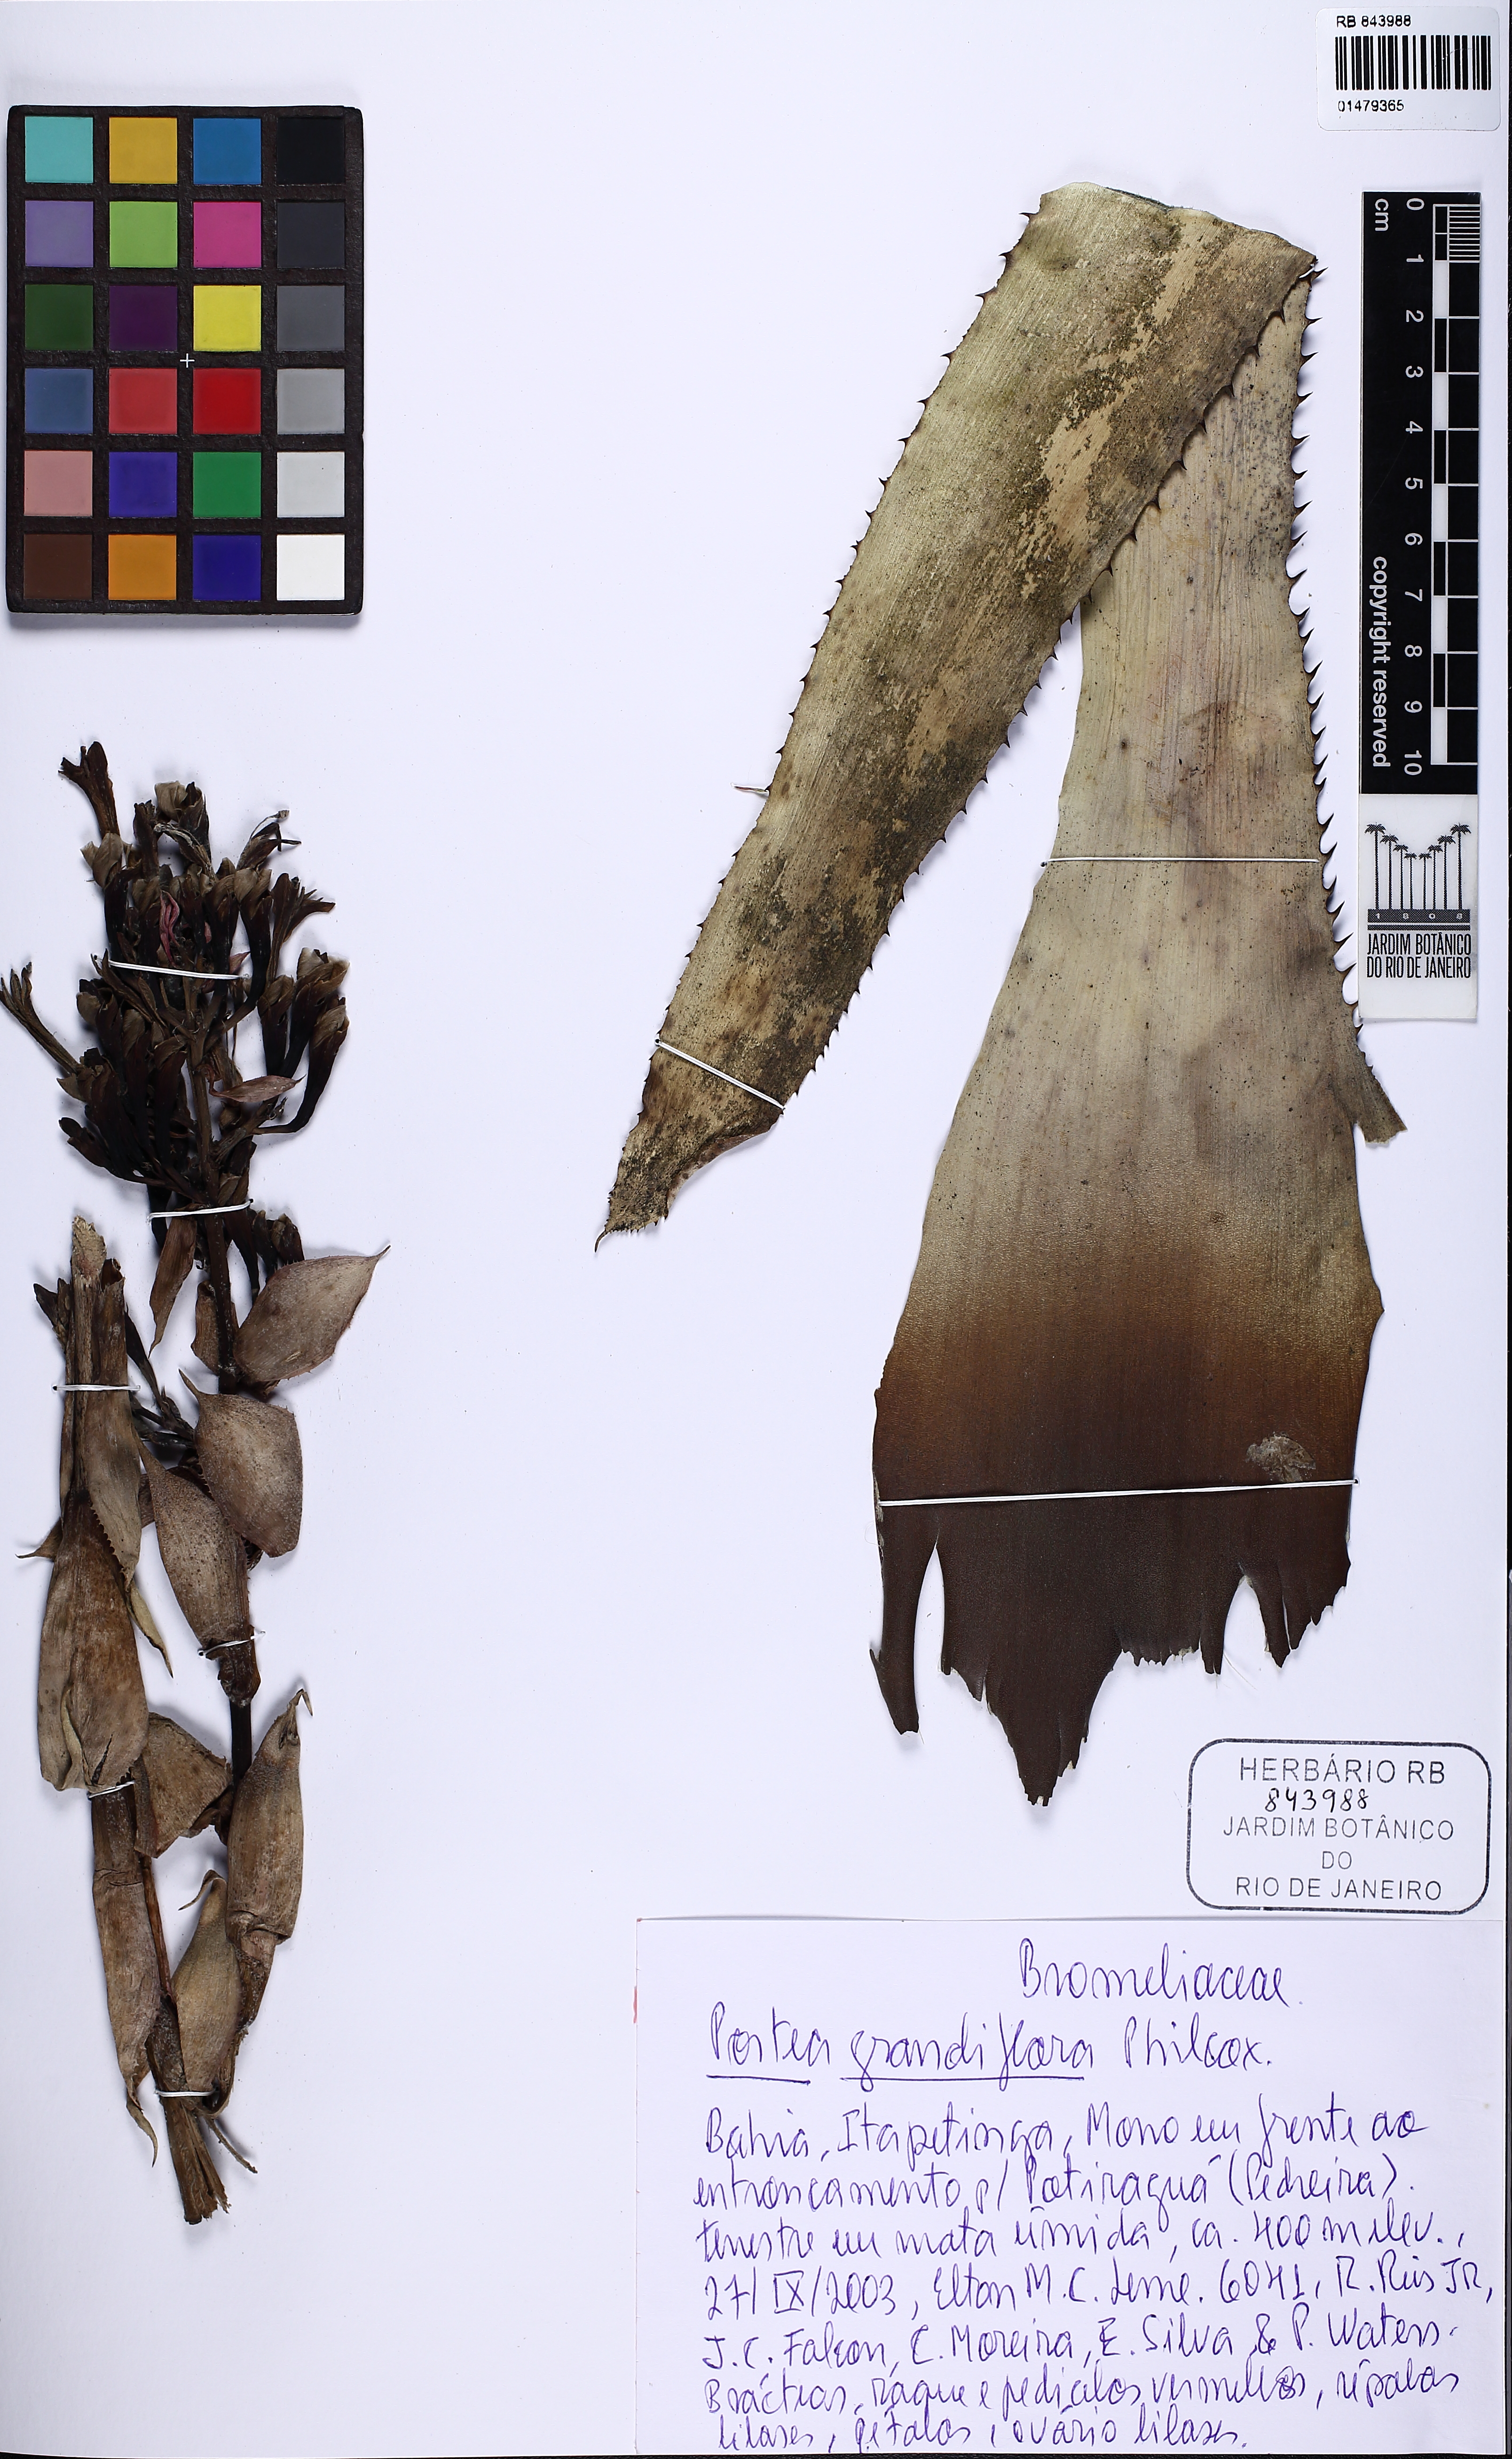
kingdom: Plantae
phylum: Tracheophyta
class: Liliopsida
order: Poales
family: Bromeliaceae
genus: Portea
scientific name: Portea grandiflora
